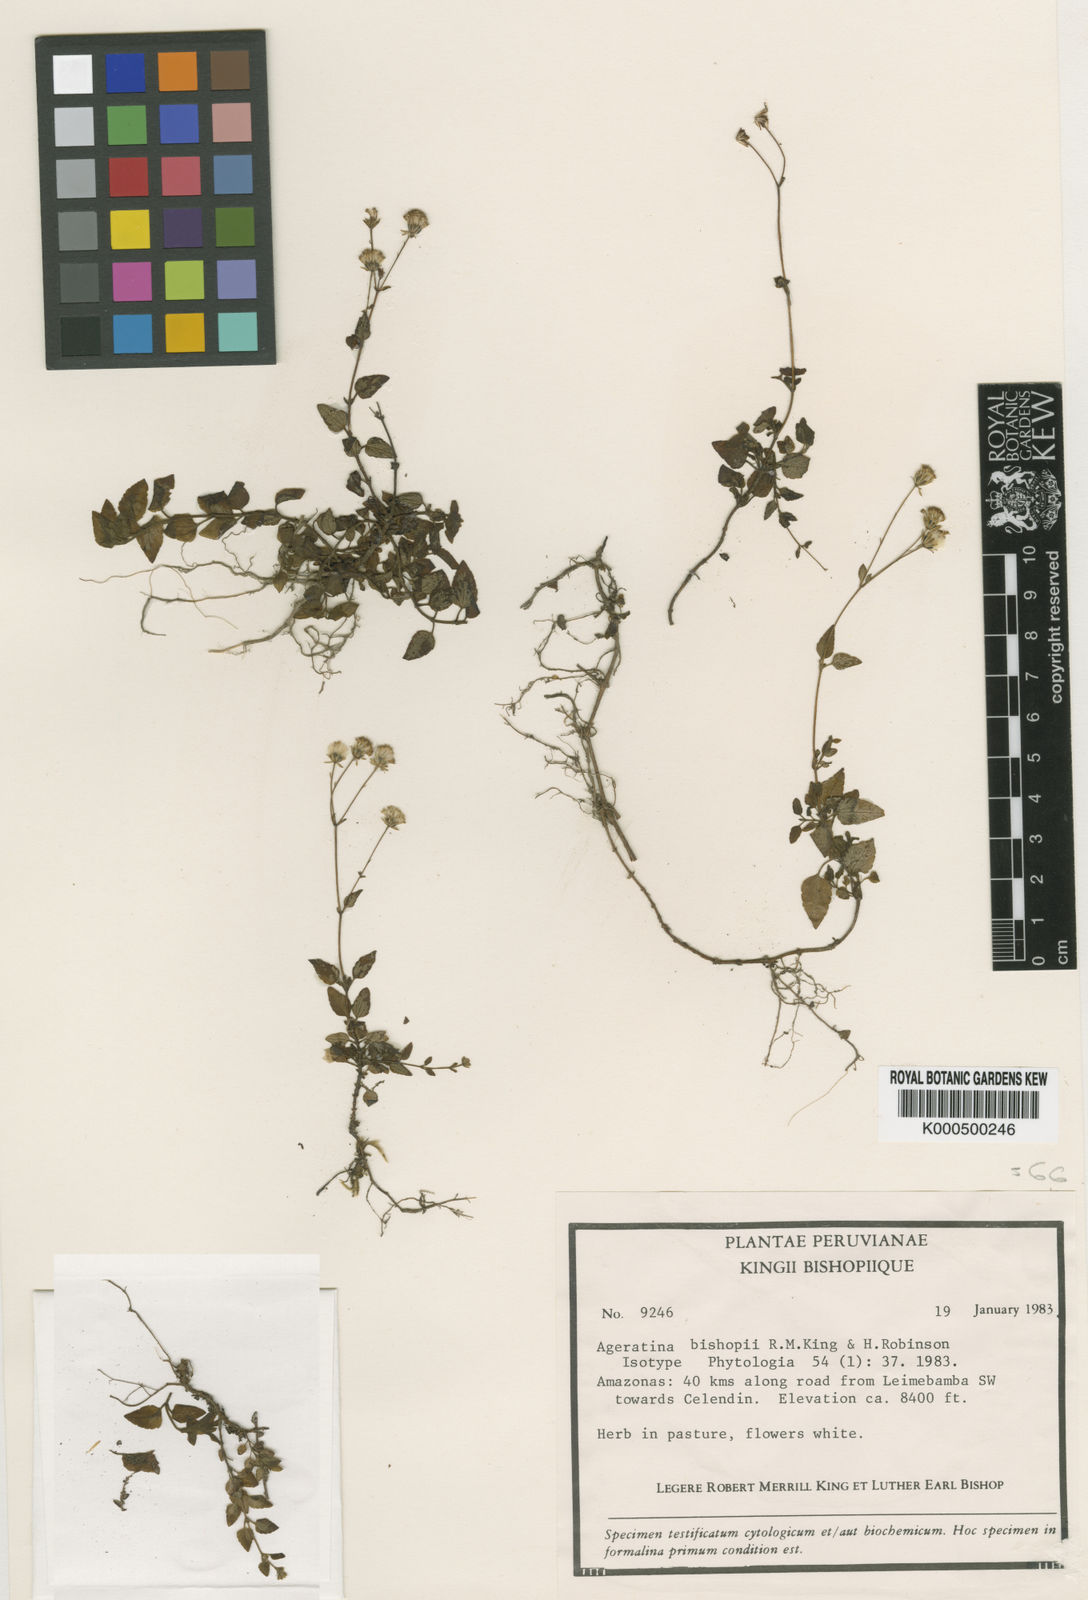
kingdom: Plantae
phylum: Tracheophyta
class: Magnoliopsida
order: Asterales
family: Asteraceae
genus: Ageratina
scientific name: Ageratina bishopii
